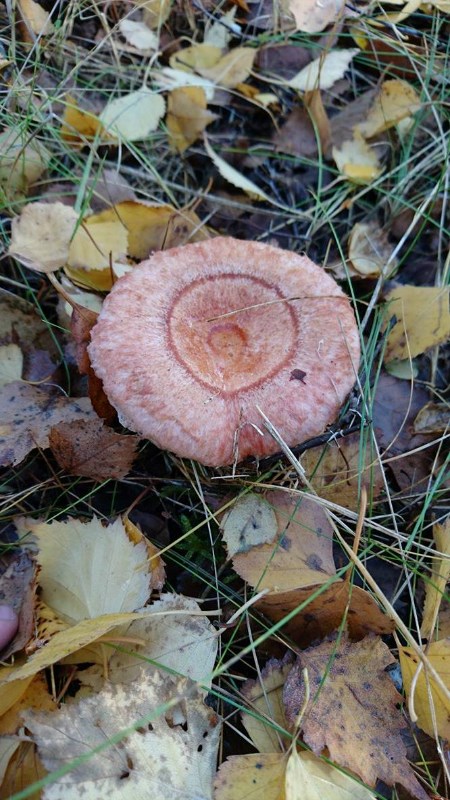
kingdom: Fungi
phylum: Basidiomycota
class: Agaricomycetes
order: Russulales
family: Russulaceae
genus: Lactarius
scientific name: Lactarius torminosus
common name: skægget mælkehat
